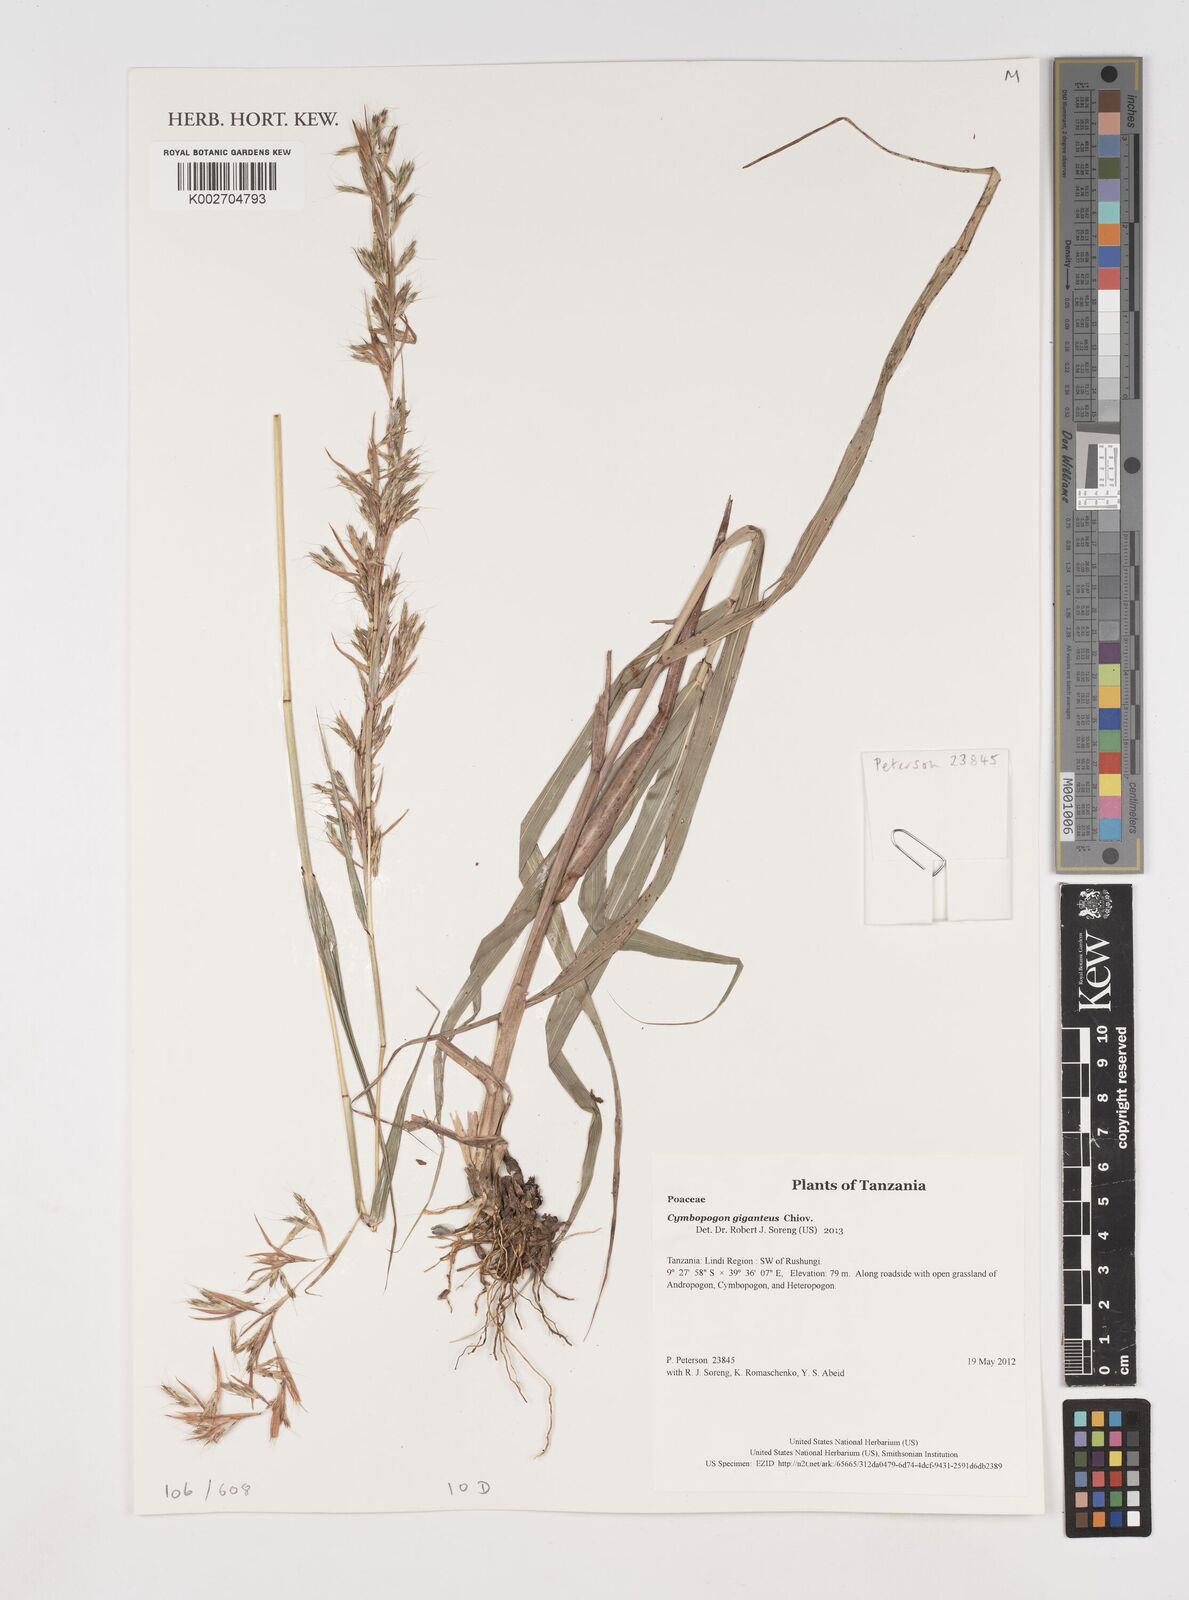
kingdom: Plantae
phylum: Tracheophyta
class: Liliopsida
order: Poales
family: Poaceae
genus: Cymbopogon
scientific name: Cymbopogon giganteus
